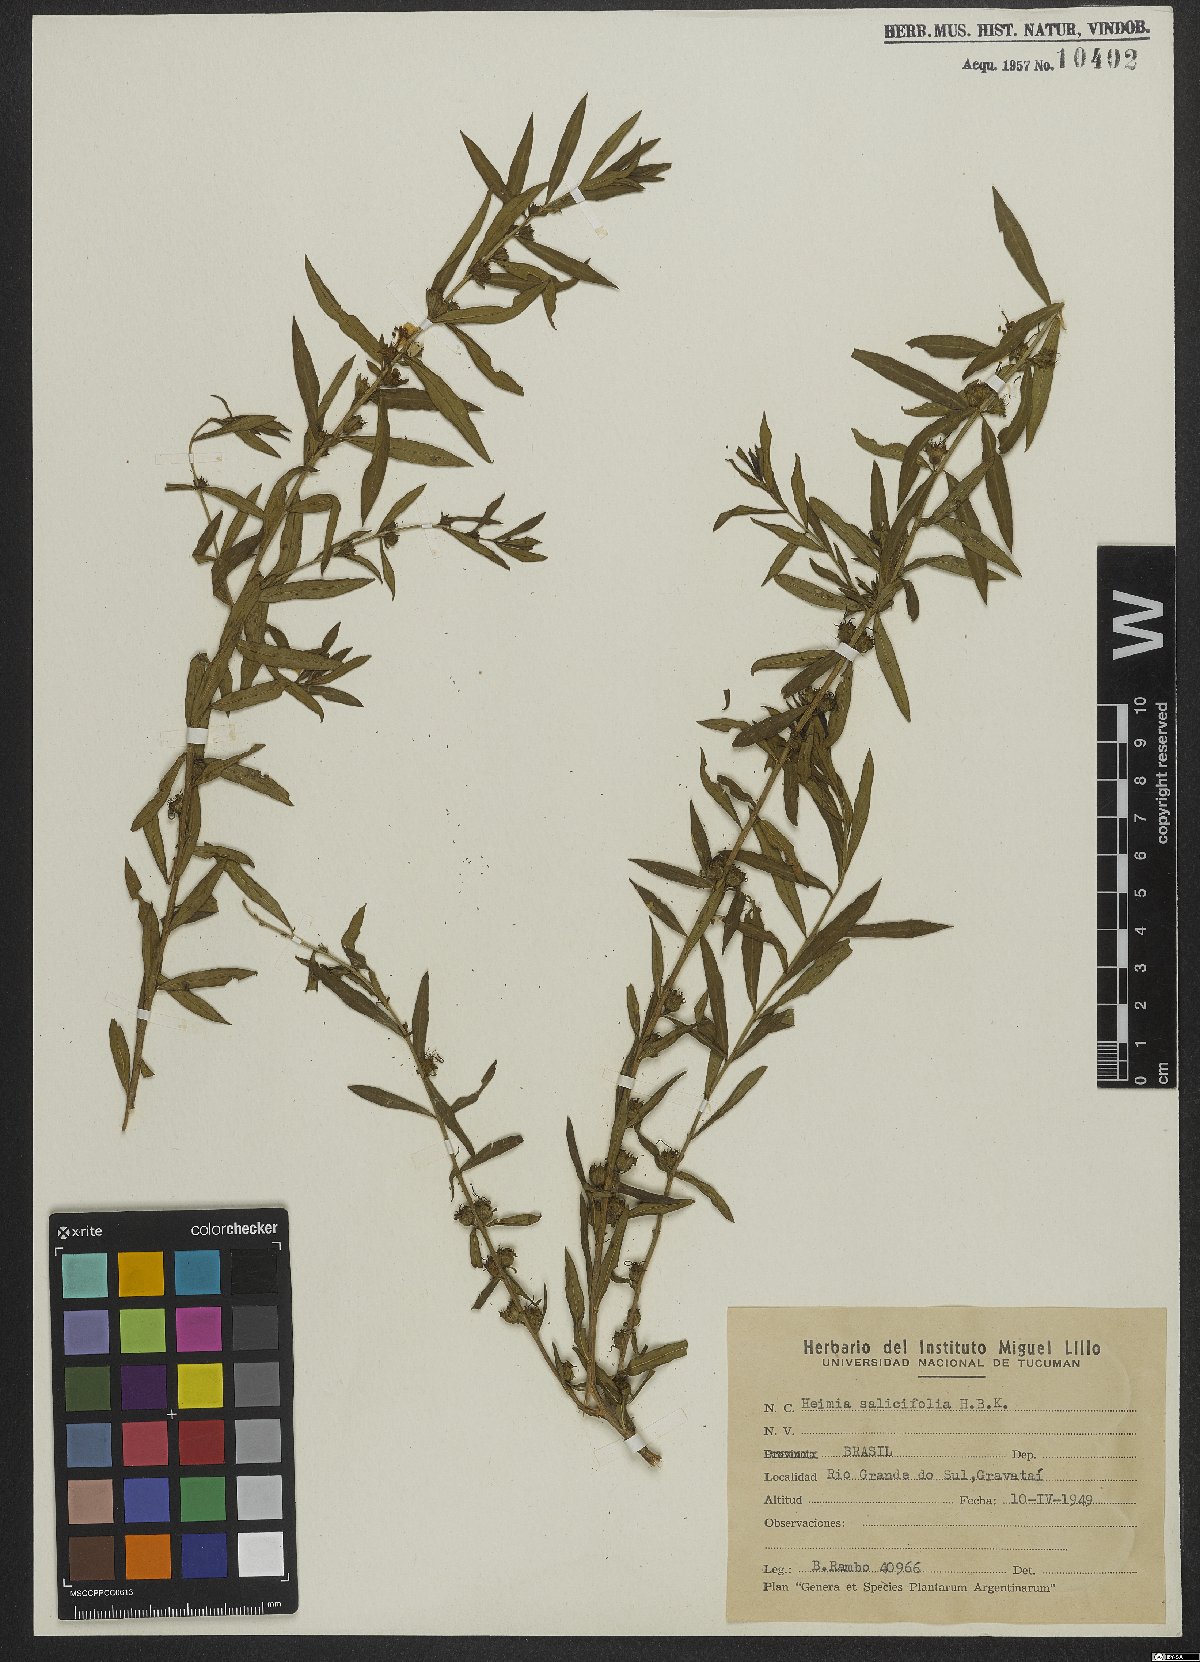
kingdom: Plantae
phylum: Tracheophyta
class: Magnoliopsida
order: Myrtales
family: Lythraceae
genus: Heimia
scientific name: Heimia salicifolia
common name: Willow-leaf heimia
